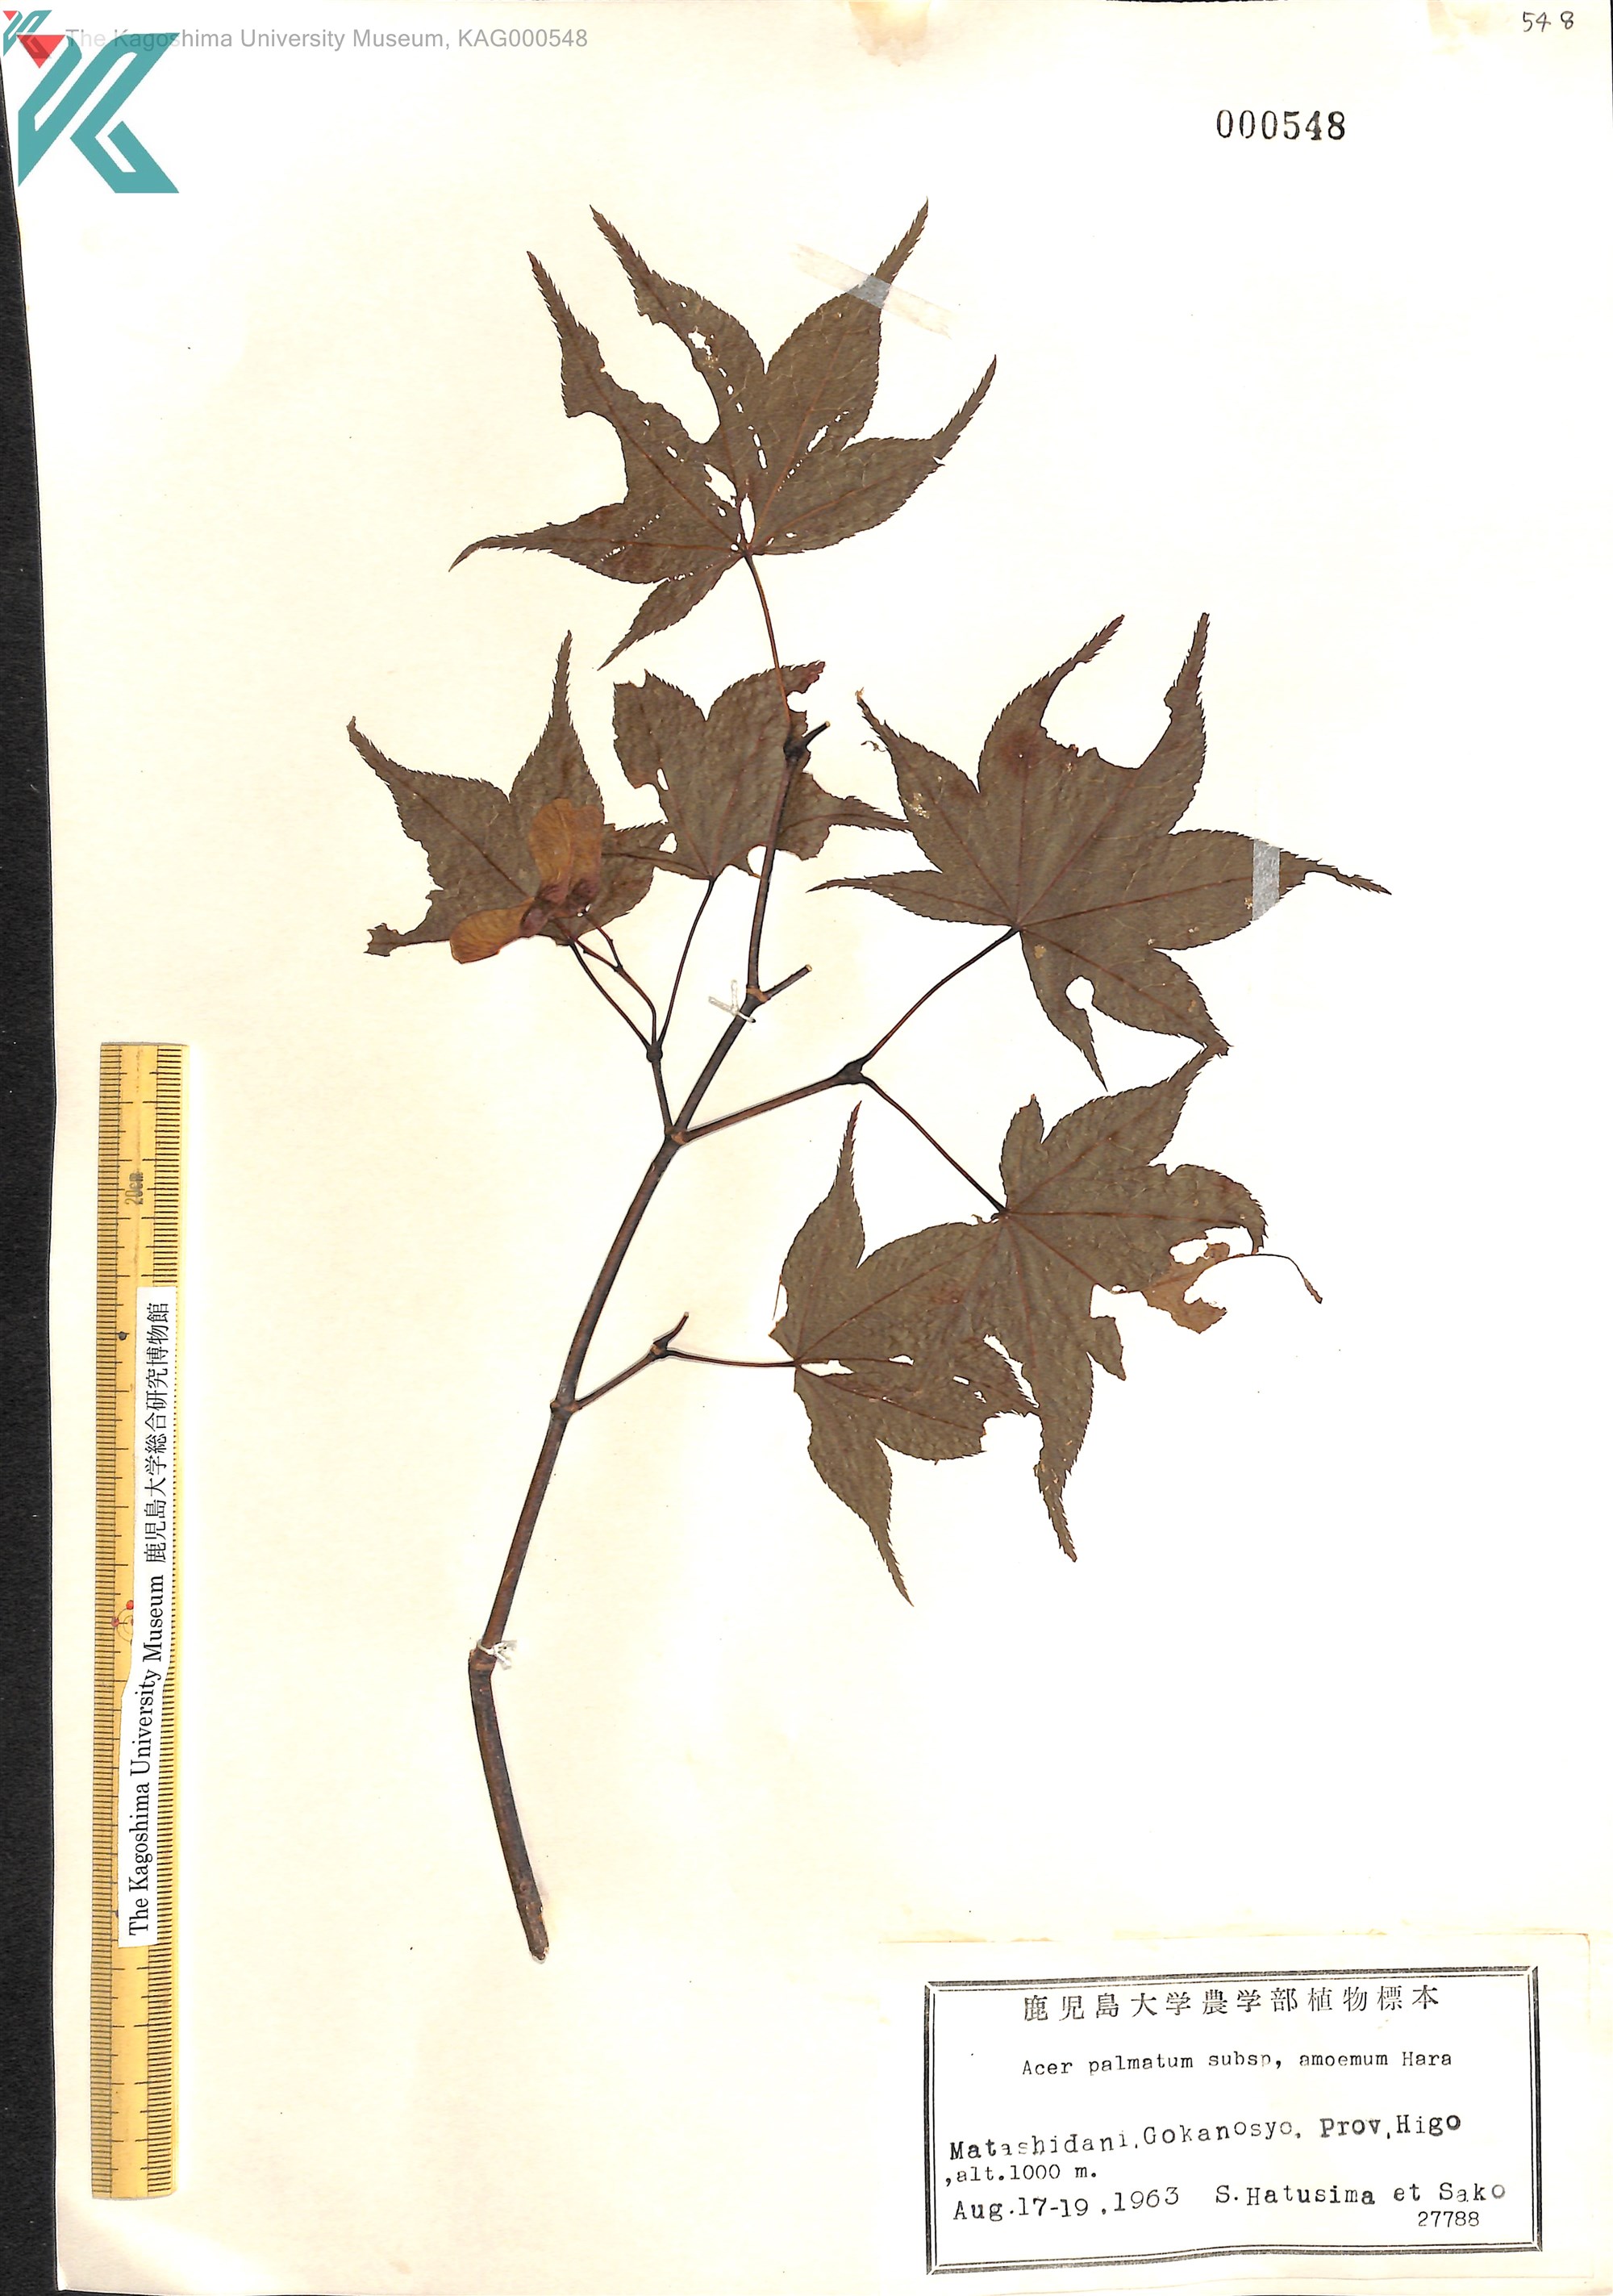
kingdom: Plantae
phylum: Tracheophyta
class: Magnoliopsida
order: Sapindales
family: Sapindaceae
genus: Acer
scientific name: Acer palmatum
